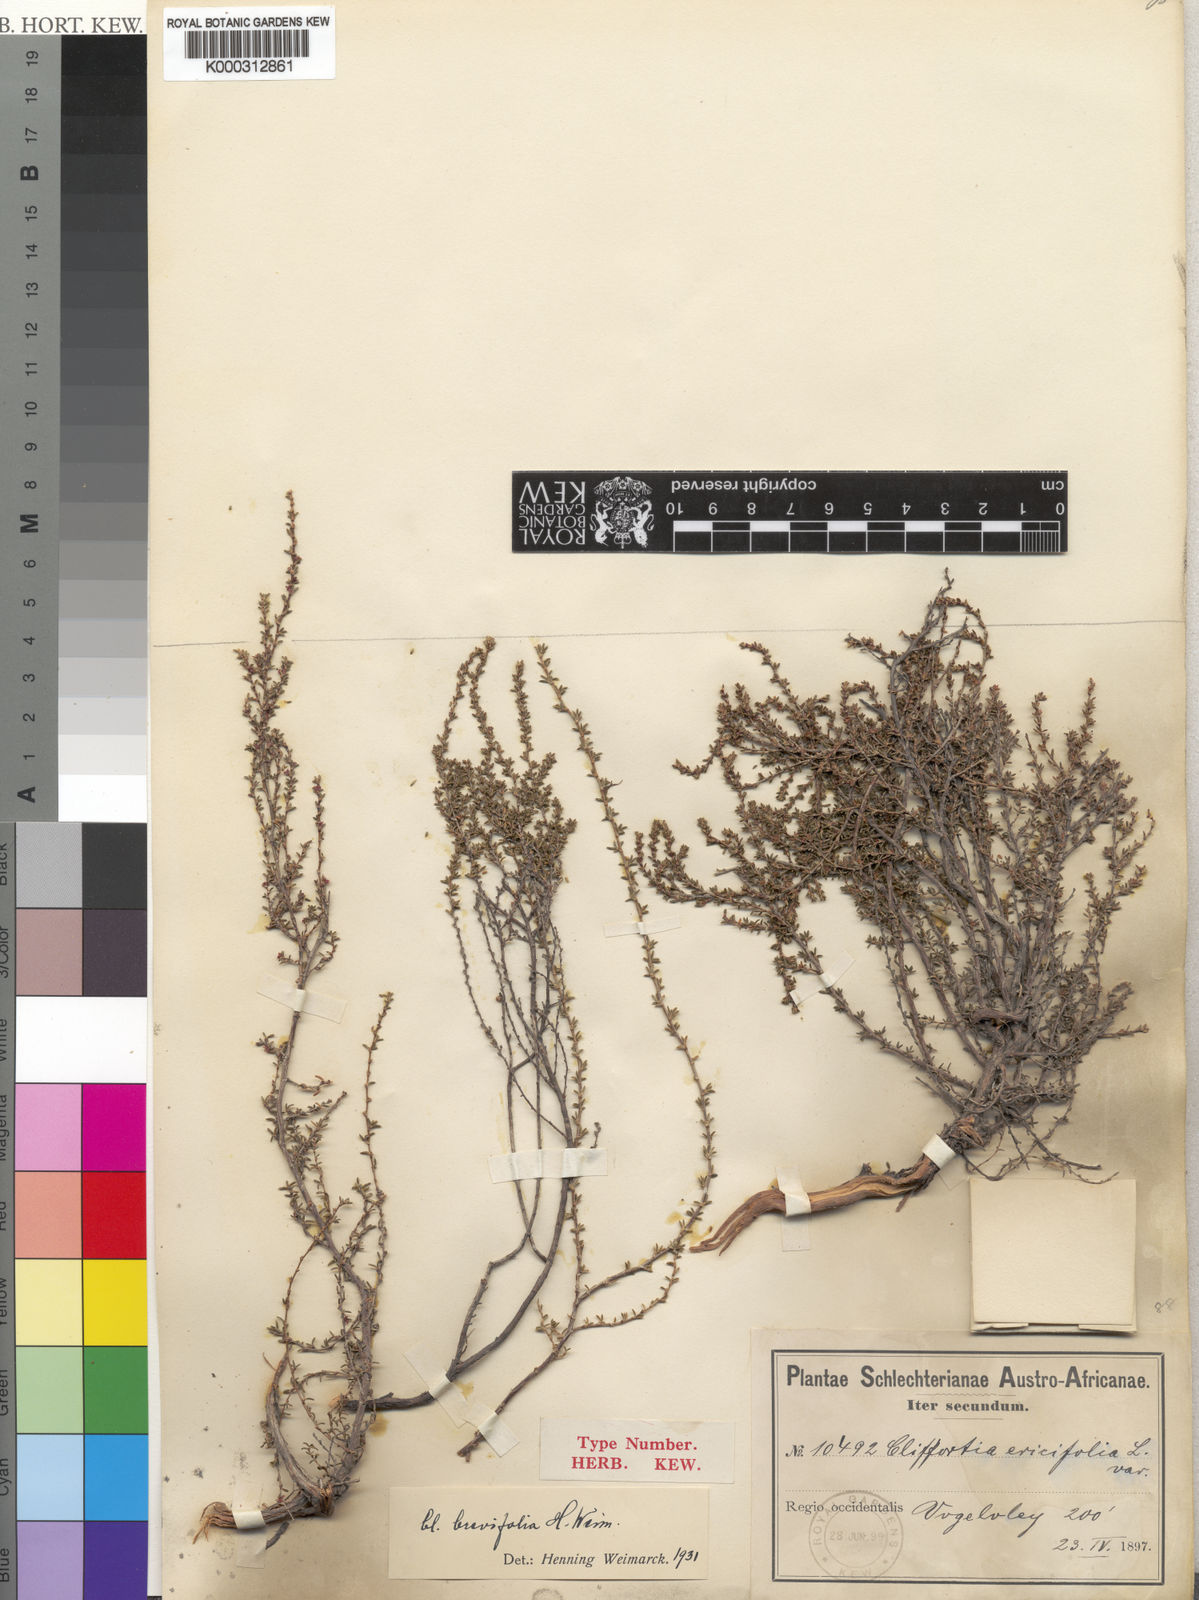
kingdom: Plantae
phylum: Tracheophyta
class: Magnoliopsida
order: Rosales
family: Rosaceae
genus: Cliffortia
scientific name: Cliffortia brevifolia
